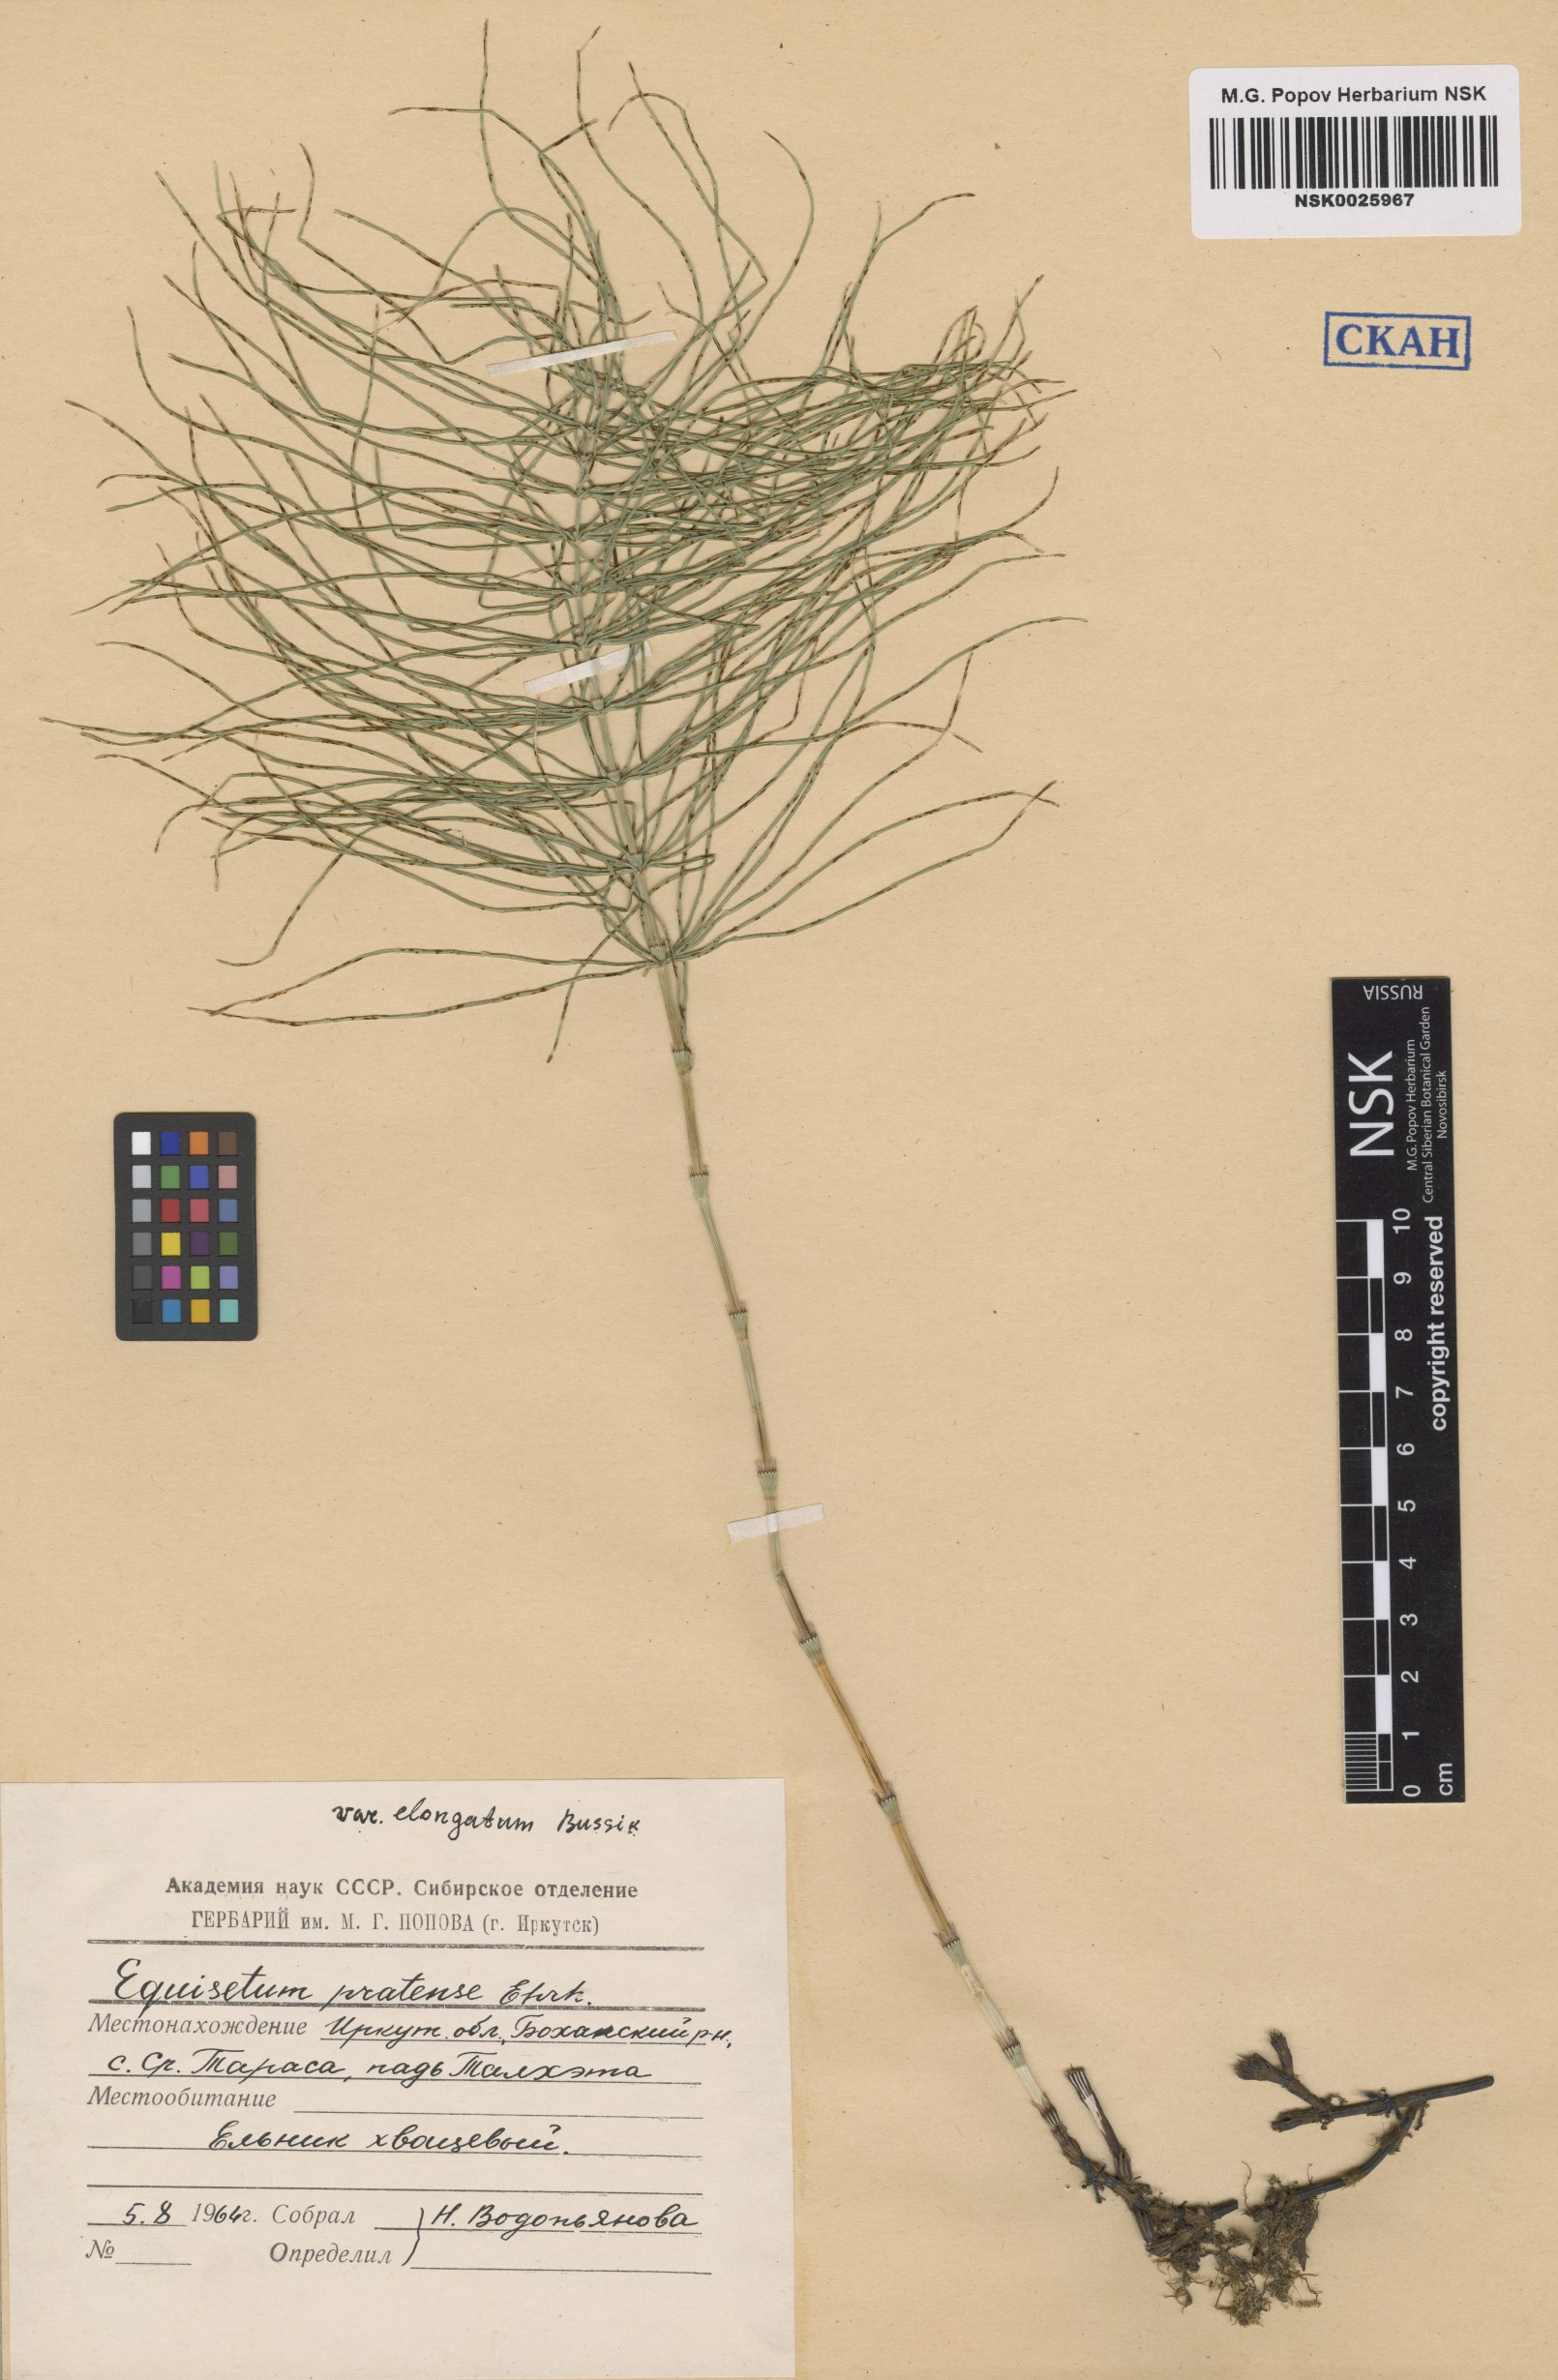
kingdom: Plantae
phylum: Tracheophyta
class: Polypodiopsida
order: Equisetales
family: Equisetaceae
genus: Equisetum
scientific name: Equisetum pratense
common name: Meadow horsetail
